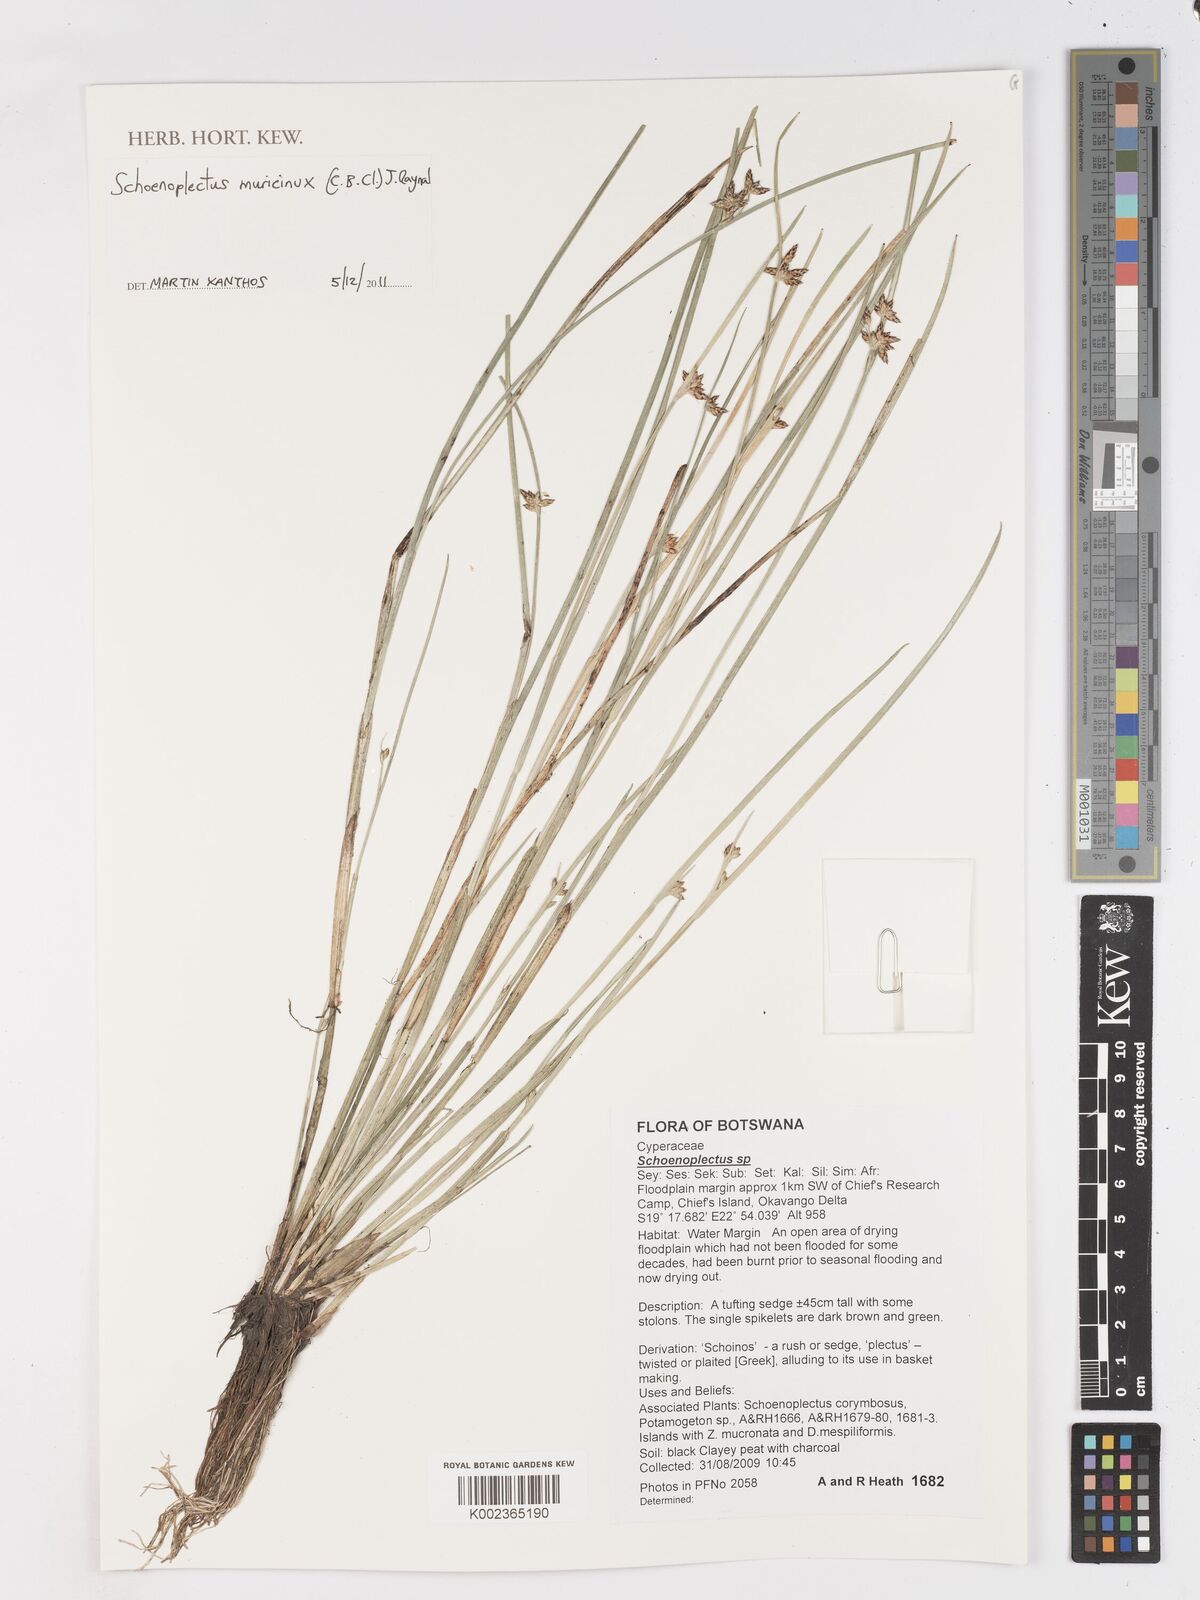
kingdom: Plantae
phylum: Tracheophyta
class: Liliopsida
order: Poales
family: Cyperaceae
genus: Schoenoplectiella
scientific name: Schoenoplectiella muricinux
